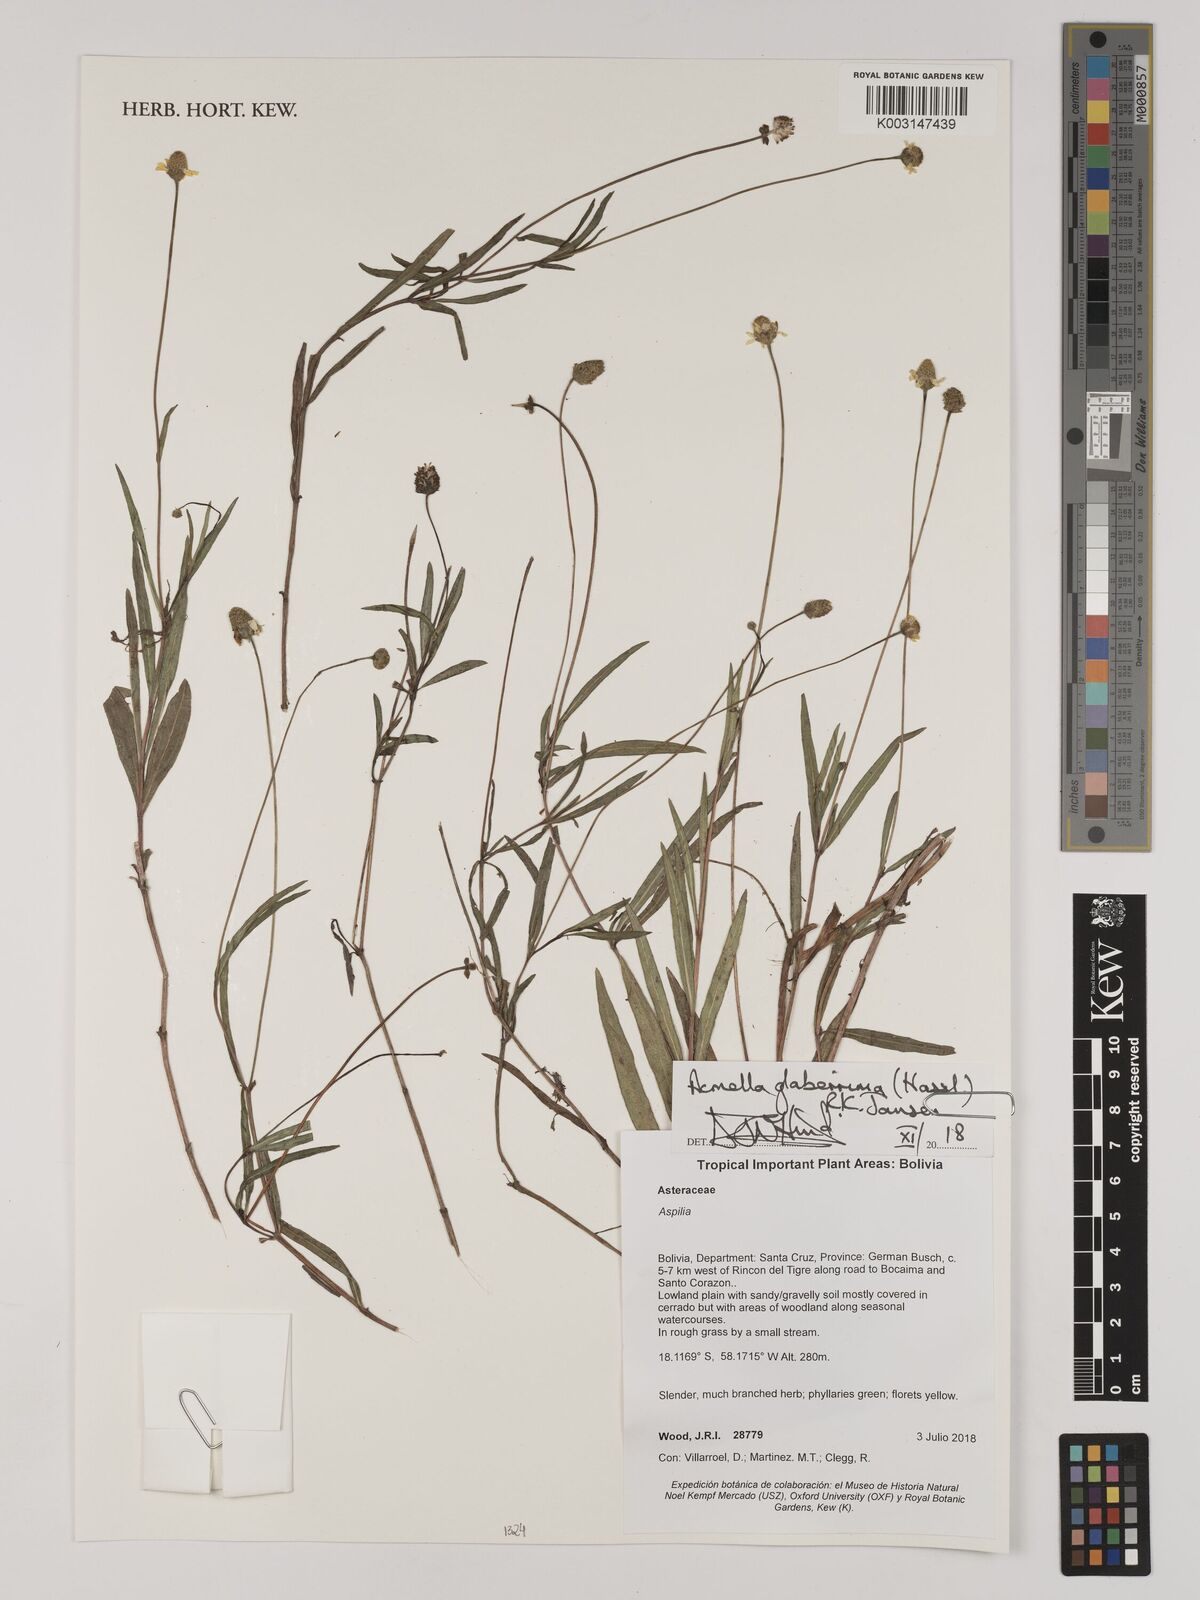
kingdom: Plantae
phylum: Tracheophyta
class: Magnoliopsida
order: Asterales
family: Asteraceae
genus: Acmella
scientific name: Acmella glaberrima
